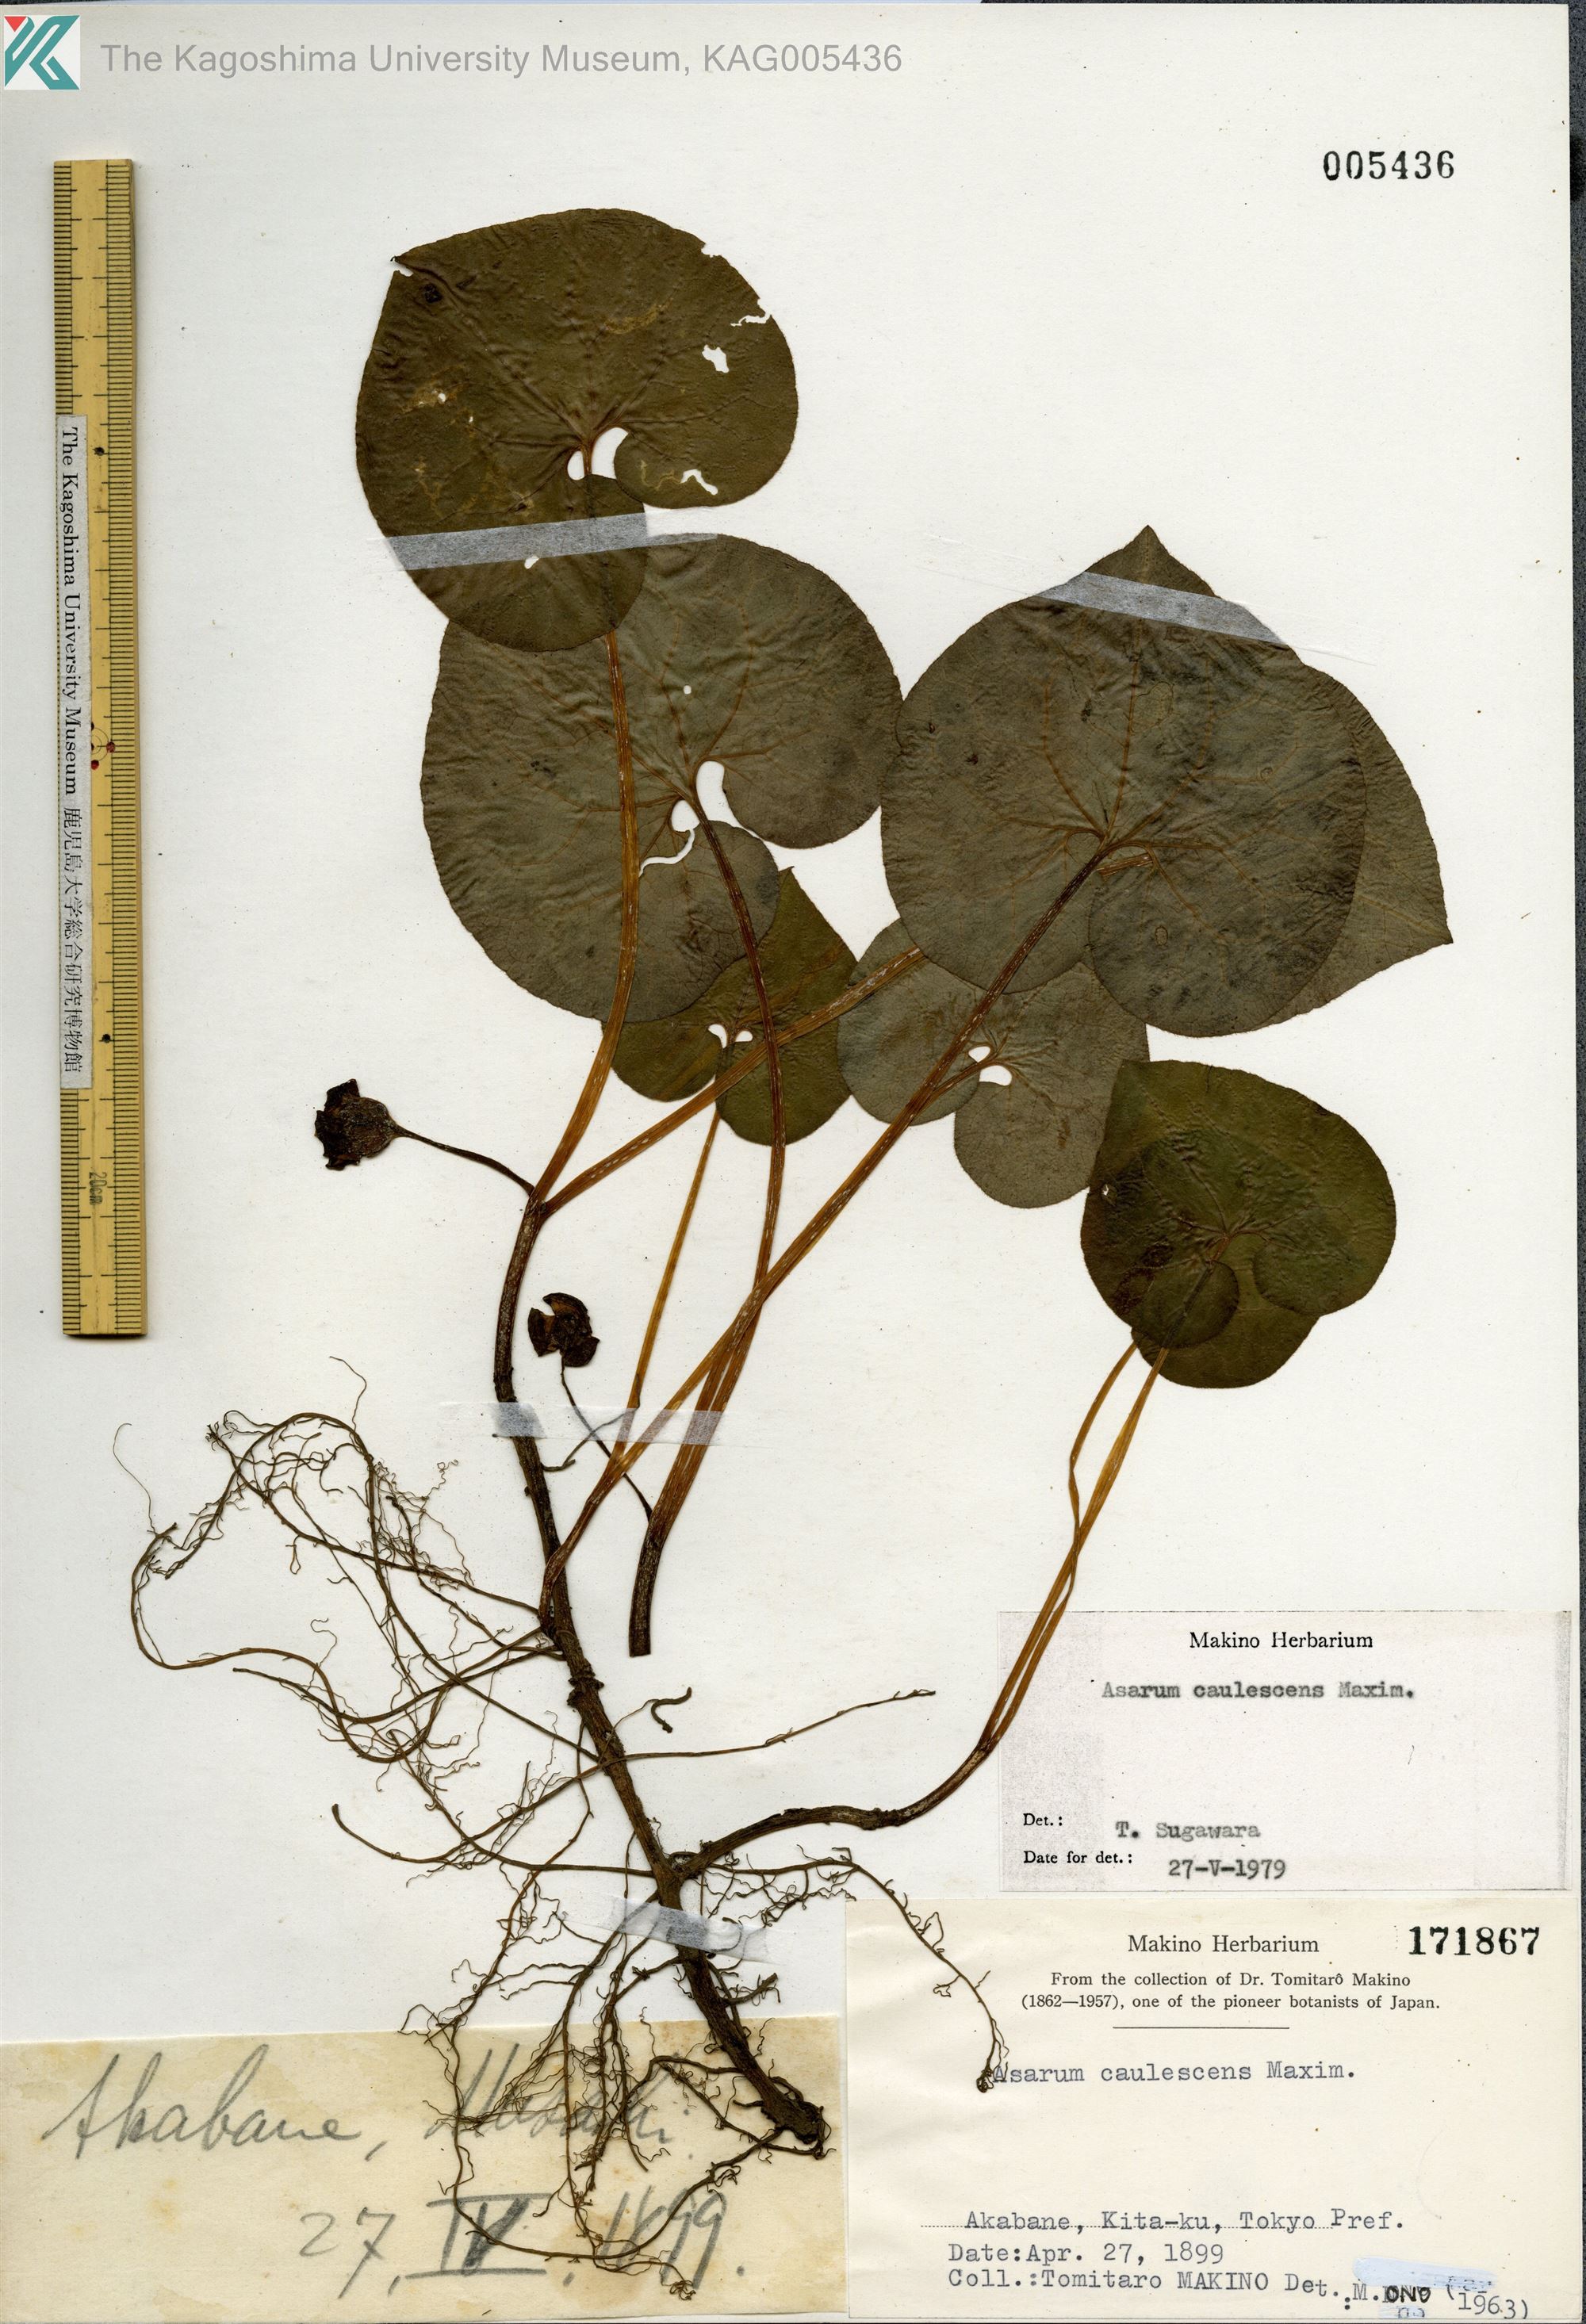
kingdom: Plantae
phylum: Tracheophyta
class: Magnoliopsida
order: Piperales
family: Aristolochiaceae
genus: Asarum
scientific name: Asarum caulescens
